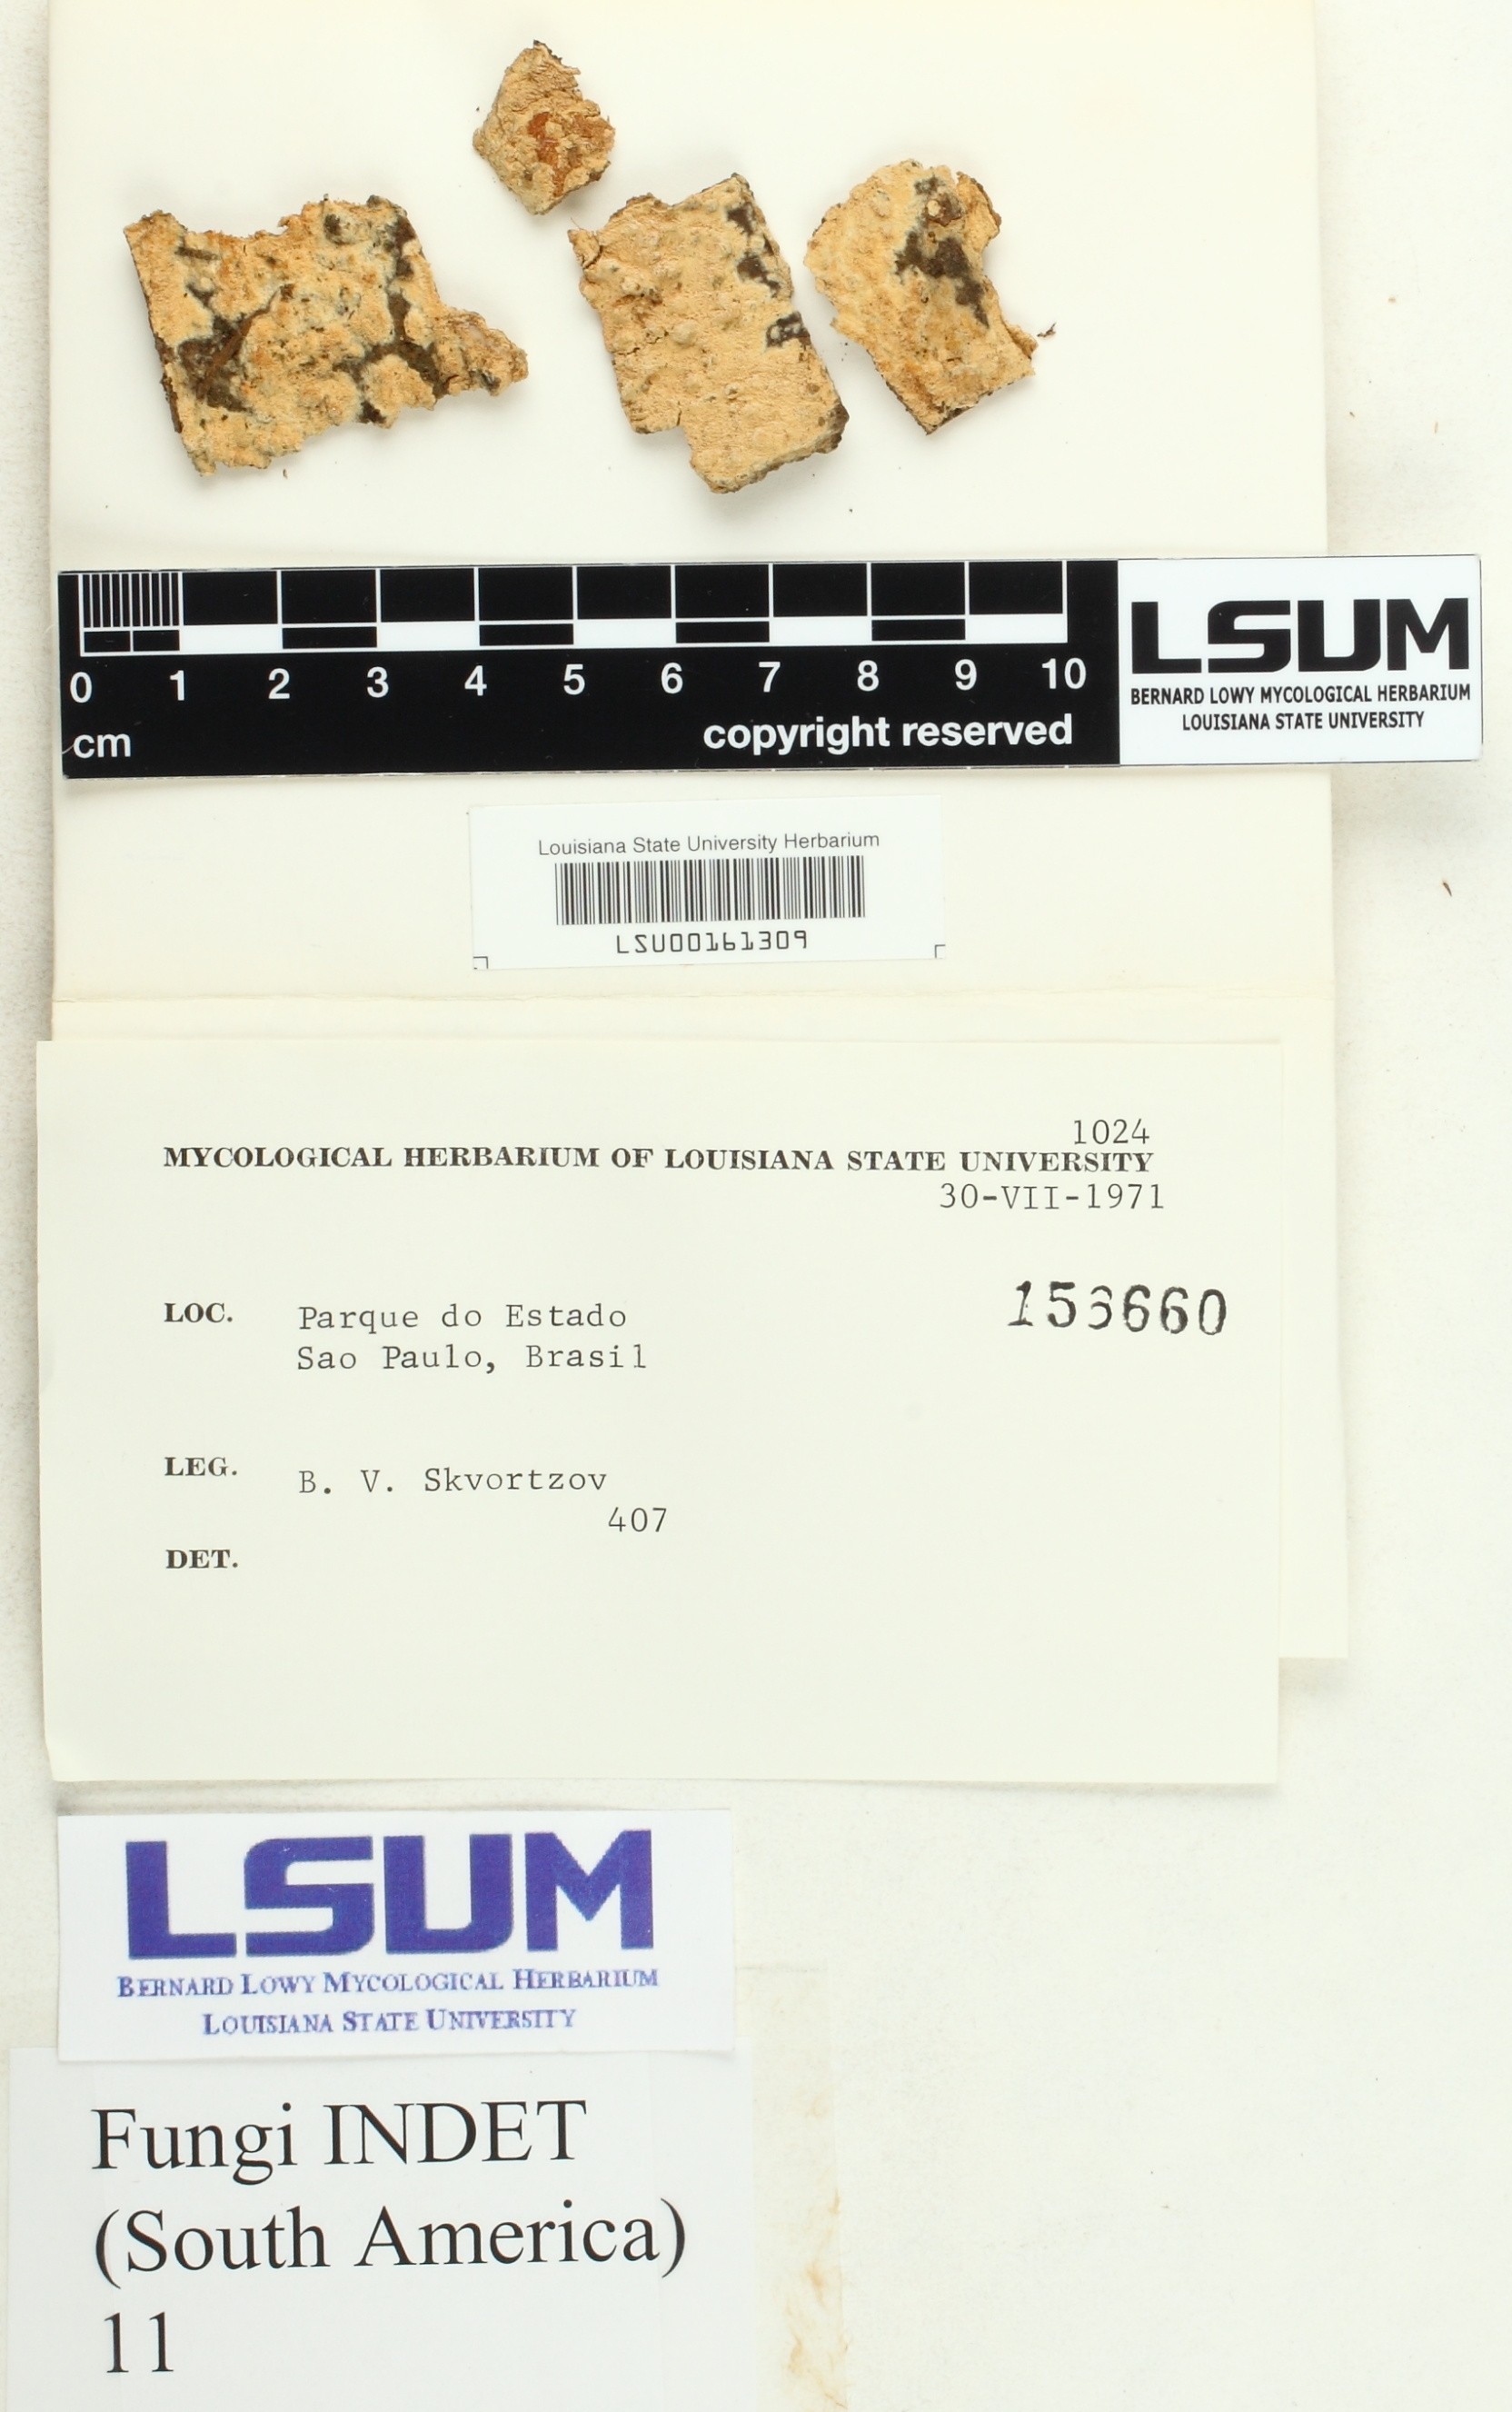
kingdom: Fungi
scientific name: Fungi
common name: Fungi
